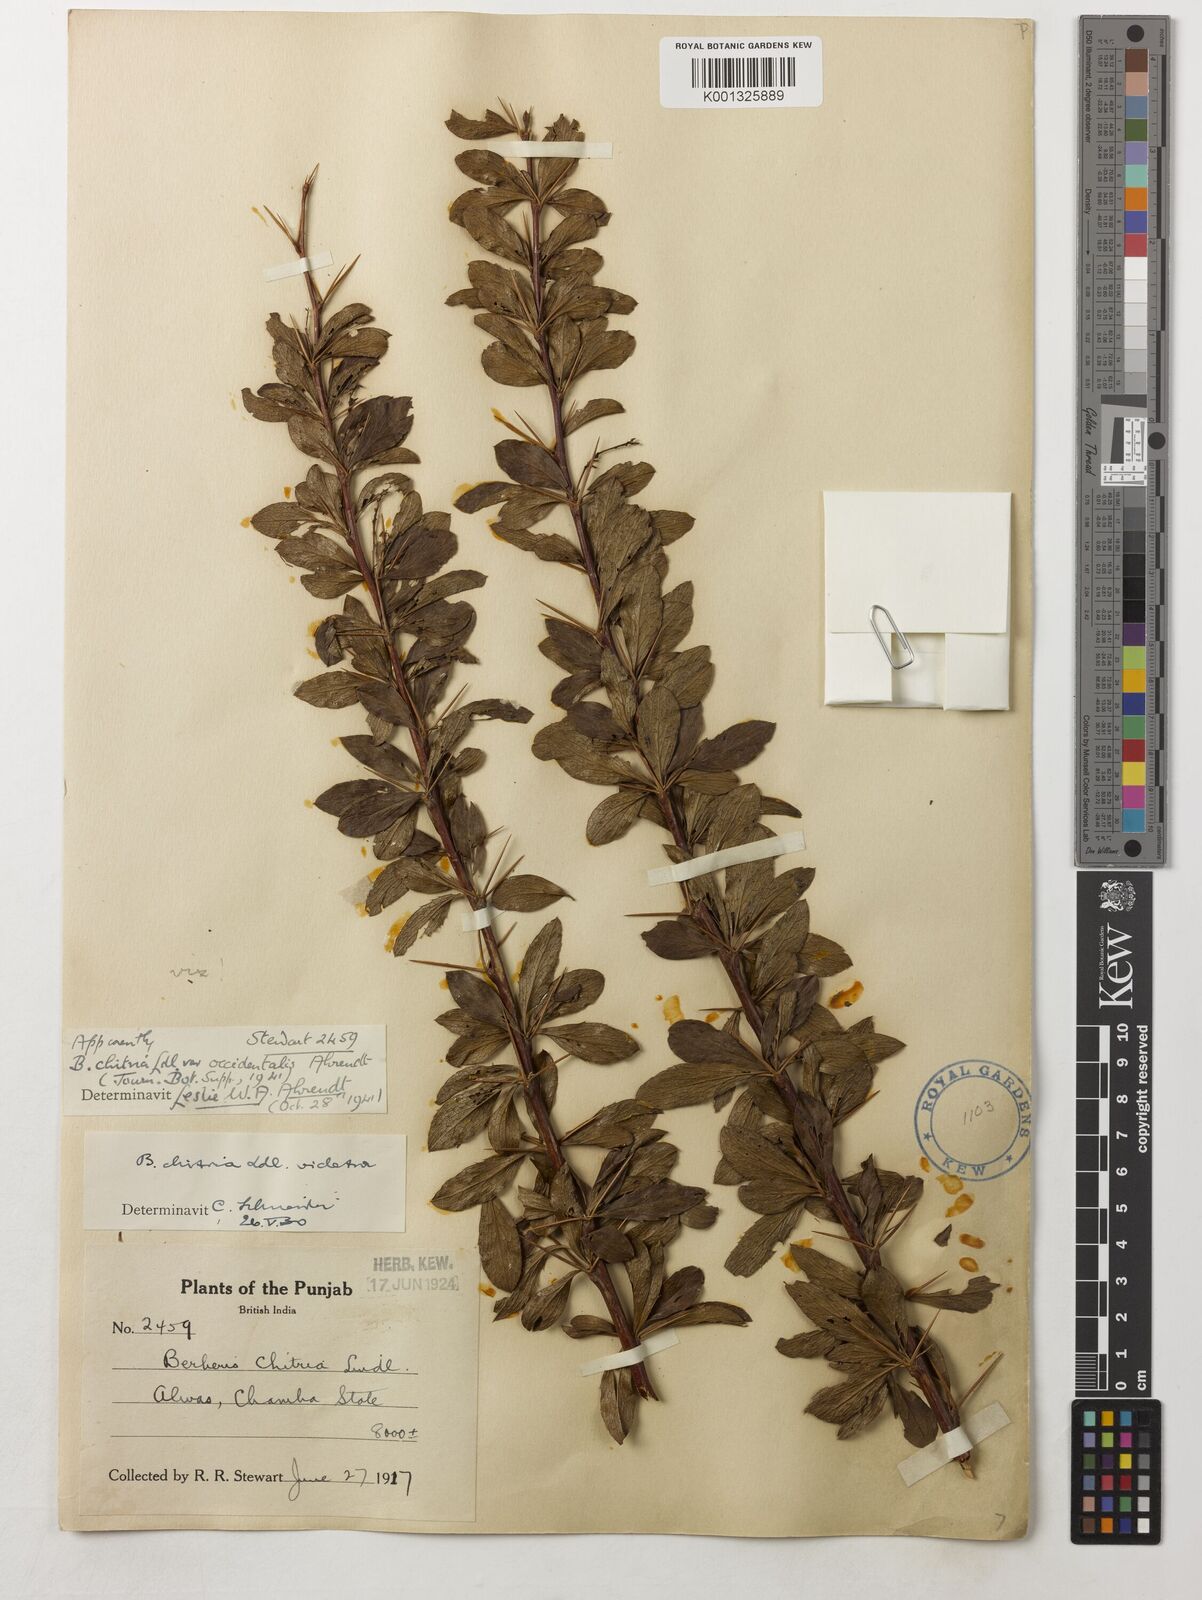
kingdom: Plantae
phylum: Tracheophyta
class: Magnoliopsida
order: Ranunculales
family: Berberidaceae
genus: Berberis
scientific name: Berberis chitria
